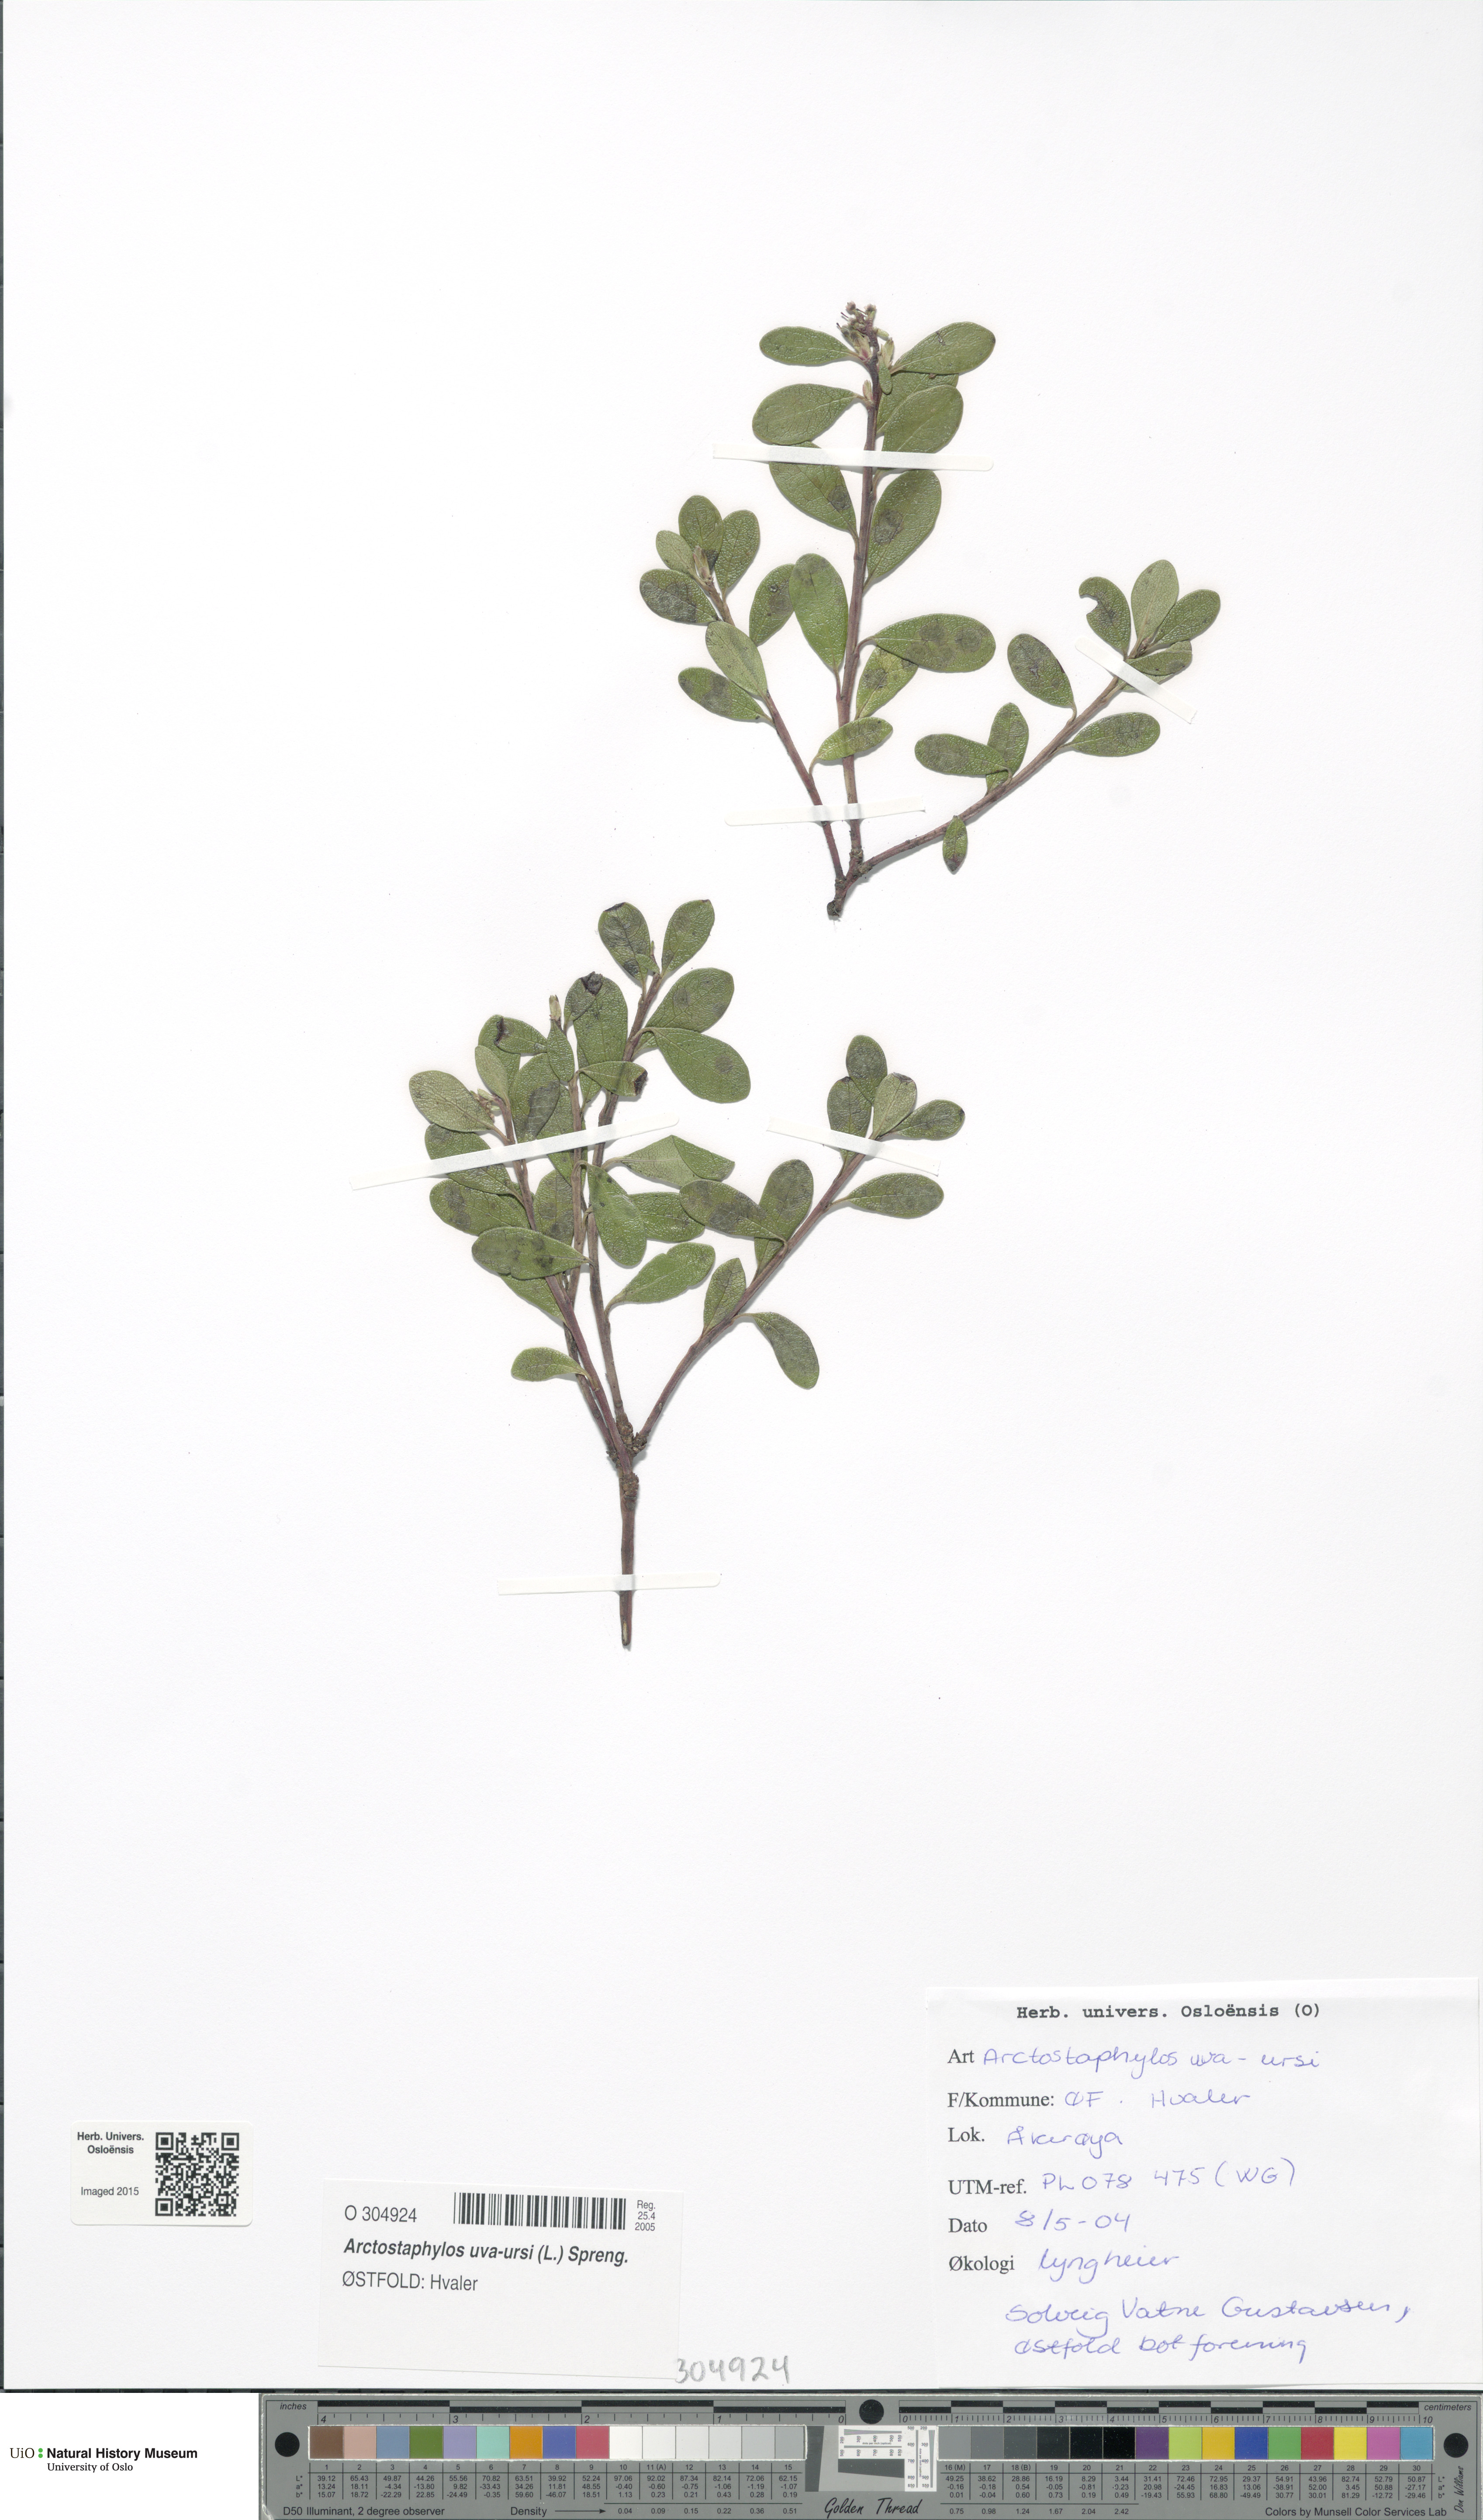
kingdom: Plantae
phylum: Tracheophyta
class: Magnoliopsida
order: Ericales
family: Ericaceae
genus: Arctostaphylos
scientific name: Arctostaphylos uva-ursi
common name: Bearberry
